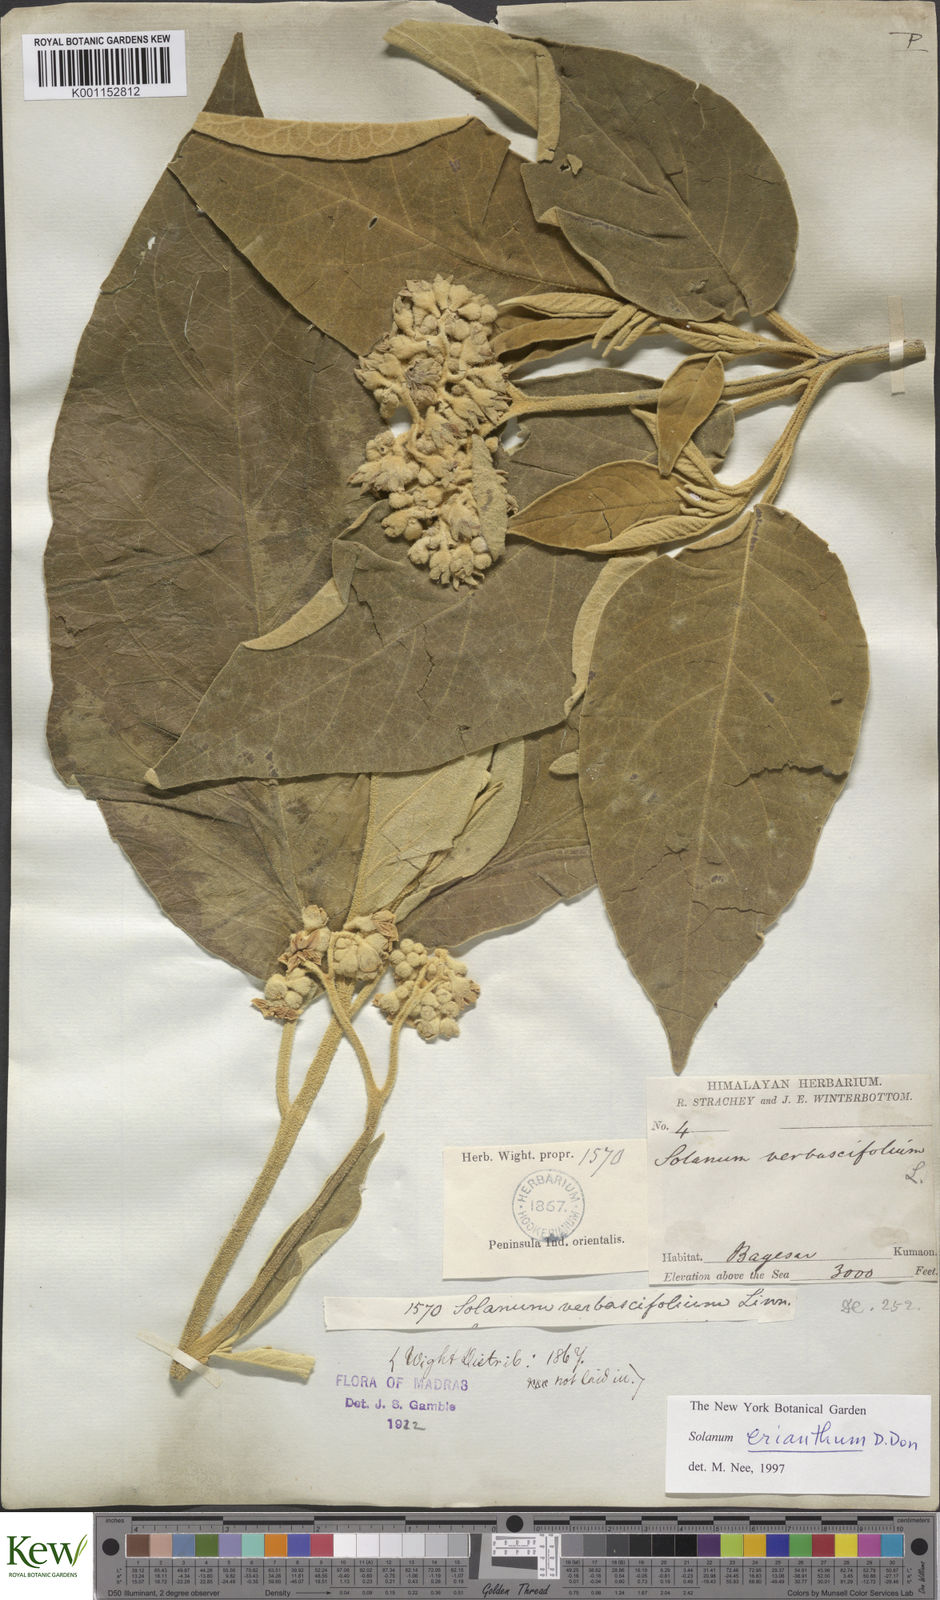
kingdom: Plantae
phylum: Tracheophyta
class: Magnoliopsida
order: Solanales
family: Solanaceae
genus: Solanum
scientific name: Solanum erianthum
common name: Tobacco-tree
